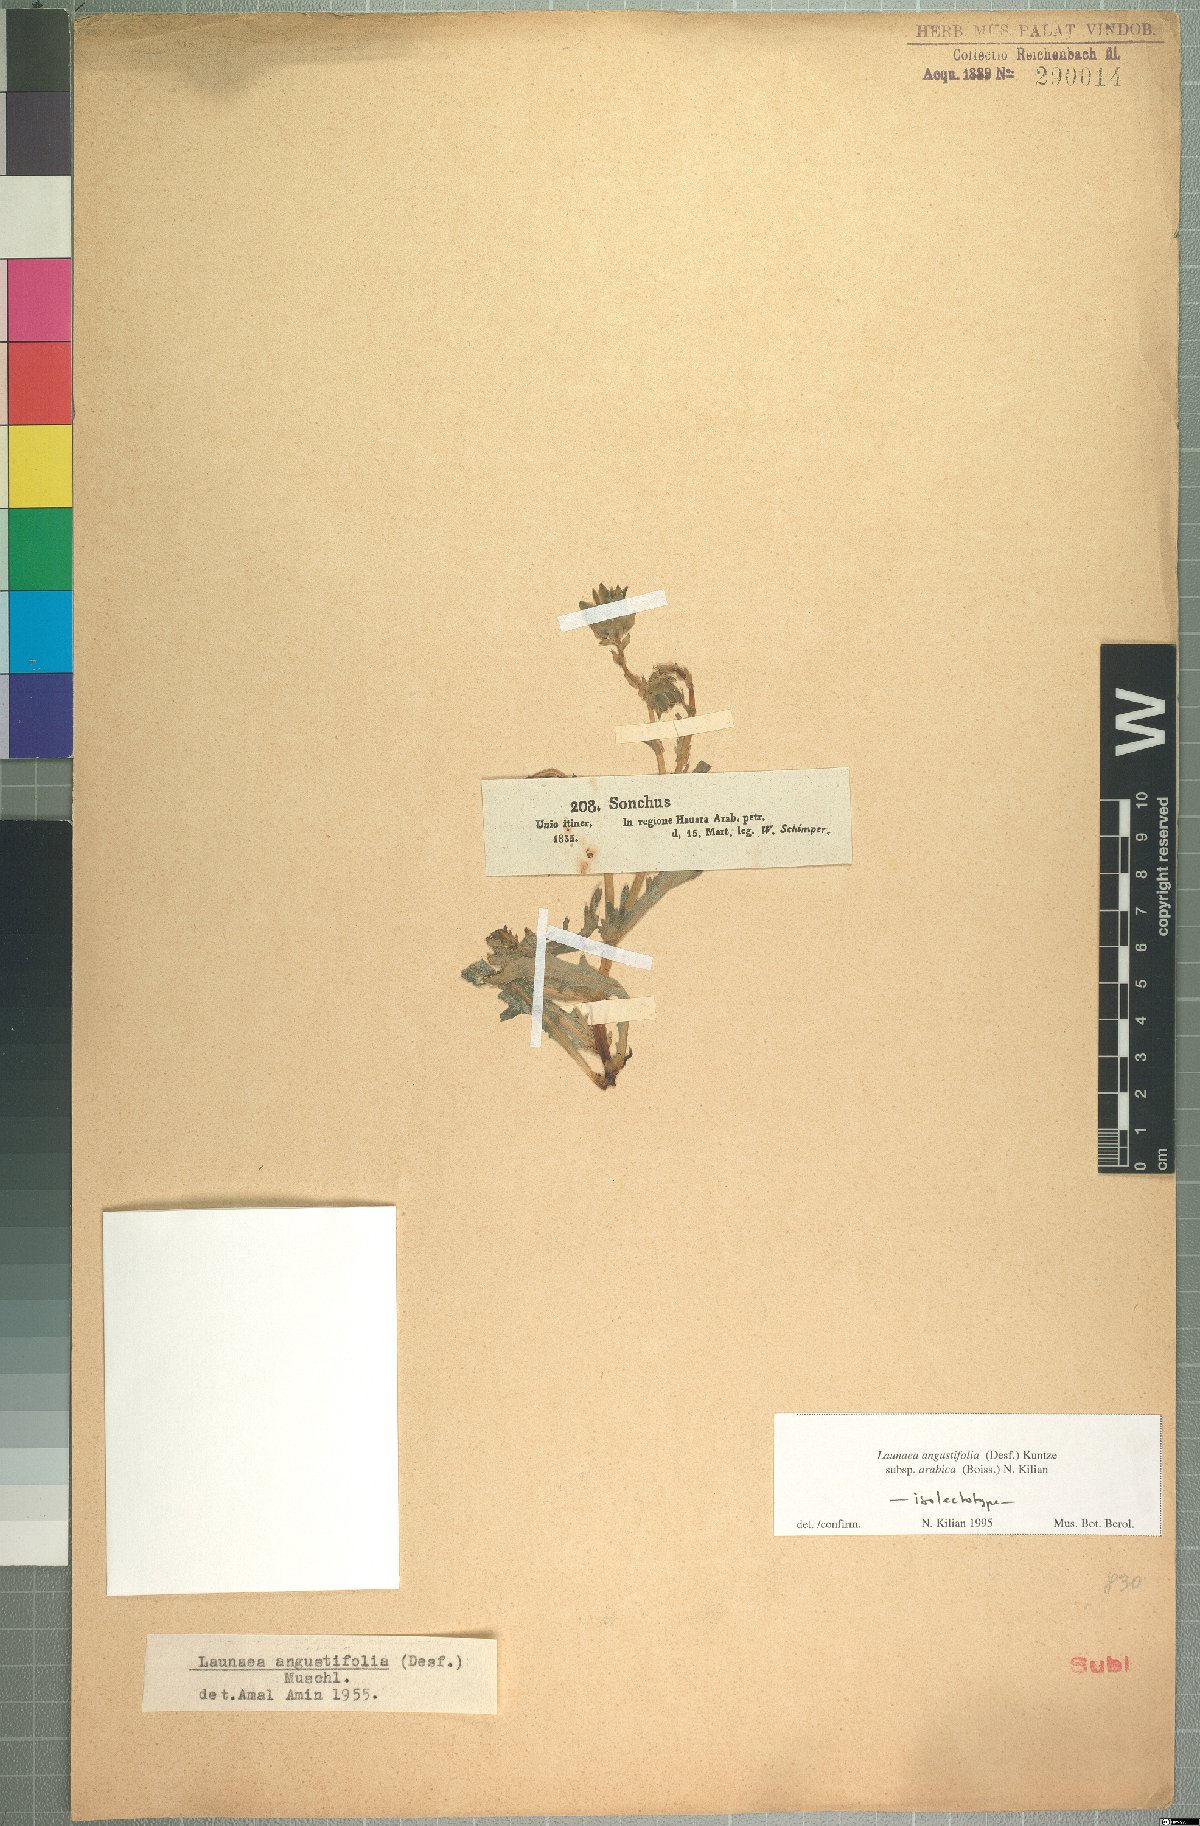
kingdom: Plantae
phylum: Tracheophyta
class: Magnoliopsida
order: Asterales
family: Asteraceae
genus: Launaea
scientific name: Launaea angustifolia
